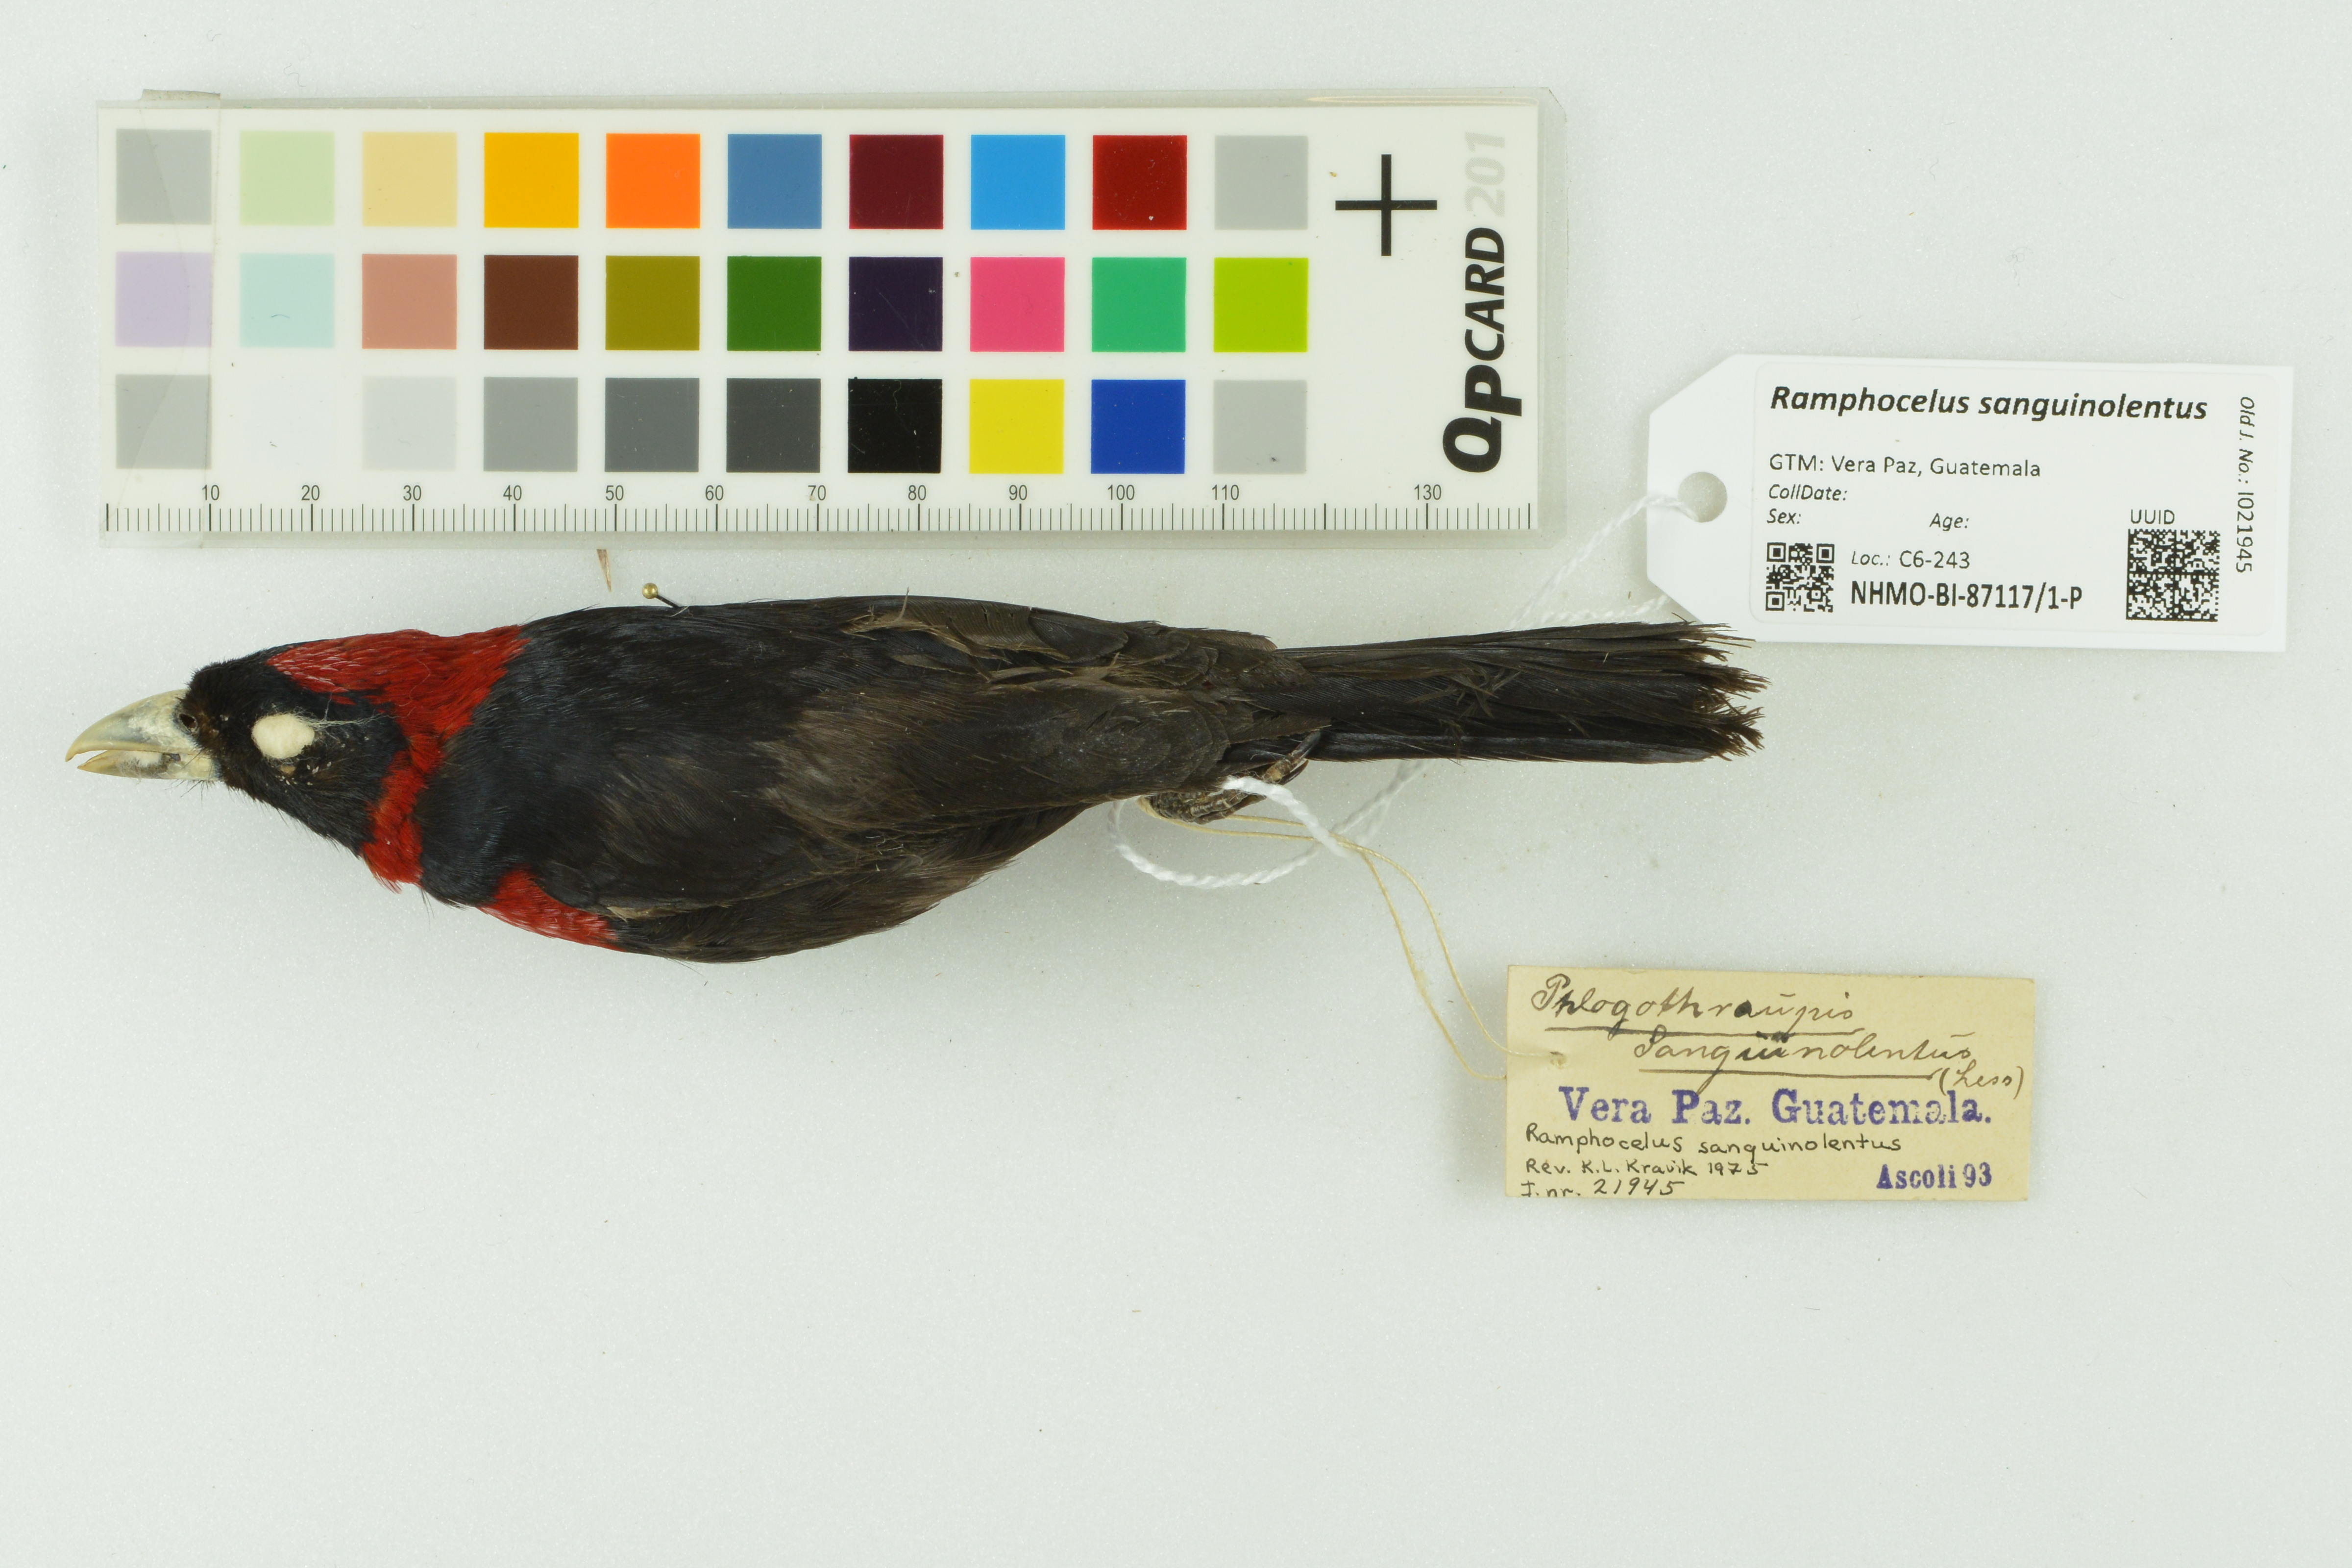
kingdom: Animalia
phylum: Chordata
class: Aves
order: Passeriformes
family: Thraupidae
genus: Ramphocelus
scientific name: Ramphocelus sanguinolentus
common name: Crimson-collared tanager
